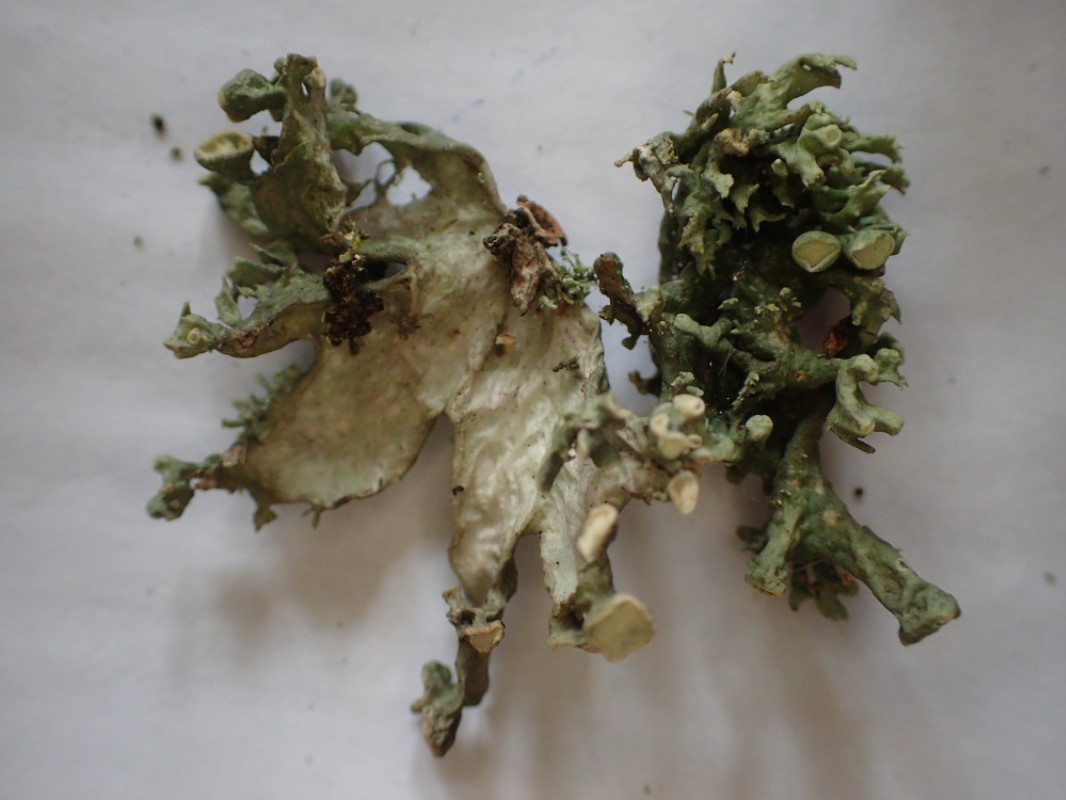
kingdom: Fungi
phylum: Ascomycota
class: Lecanoromycetes
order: Lecanorales
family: Ramalinaceae
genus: Ramalina
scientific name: Ramalina fastigiata
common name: tue-grenlav
